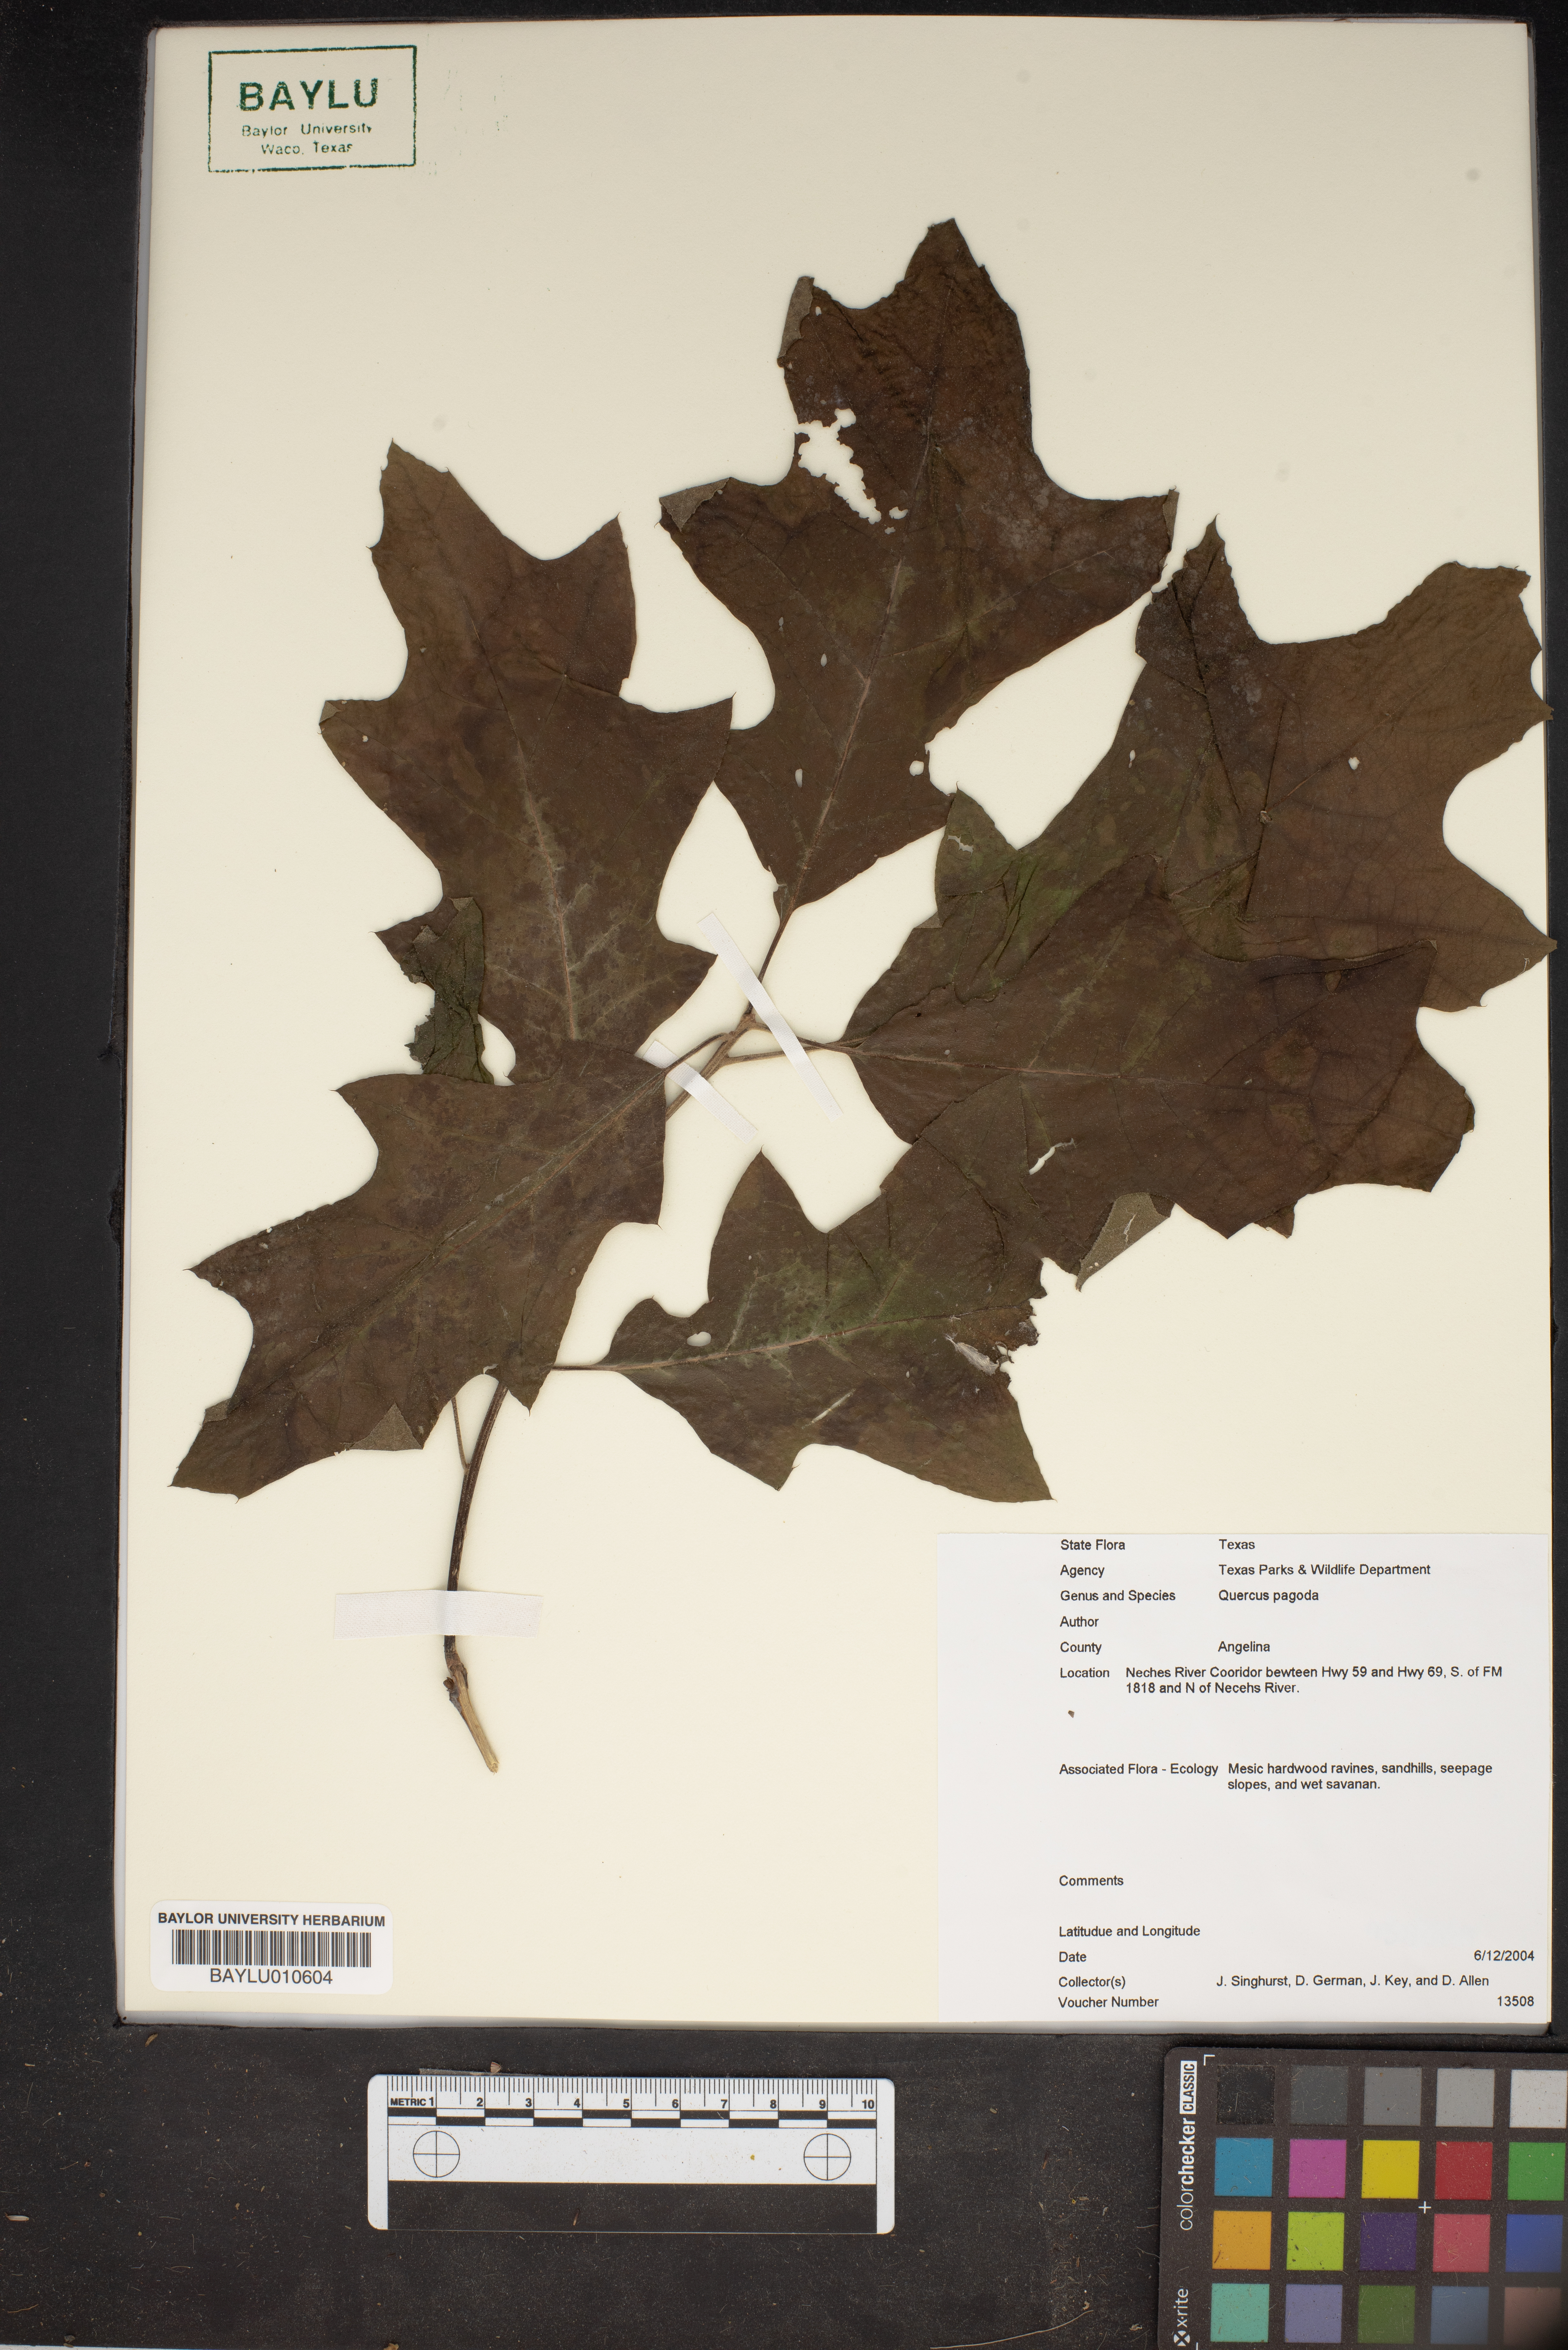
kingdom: Plantae
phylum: Tracheophyta
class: Magnoliopsida
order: Fagales
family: Fagaceae
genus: Quercus
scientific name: Quercus pagoda
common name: Cherrybark oak
